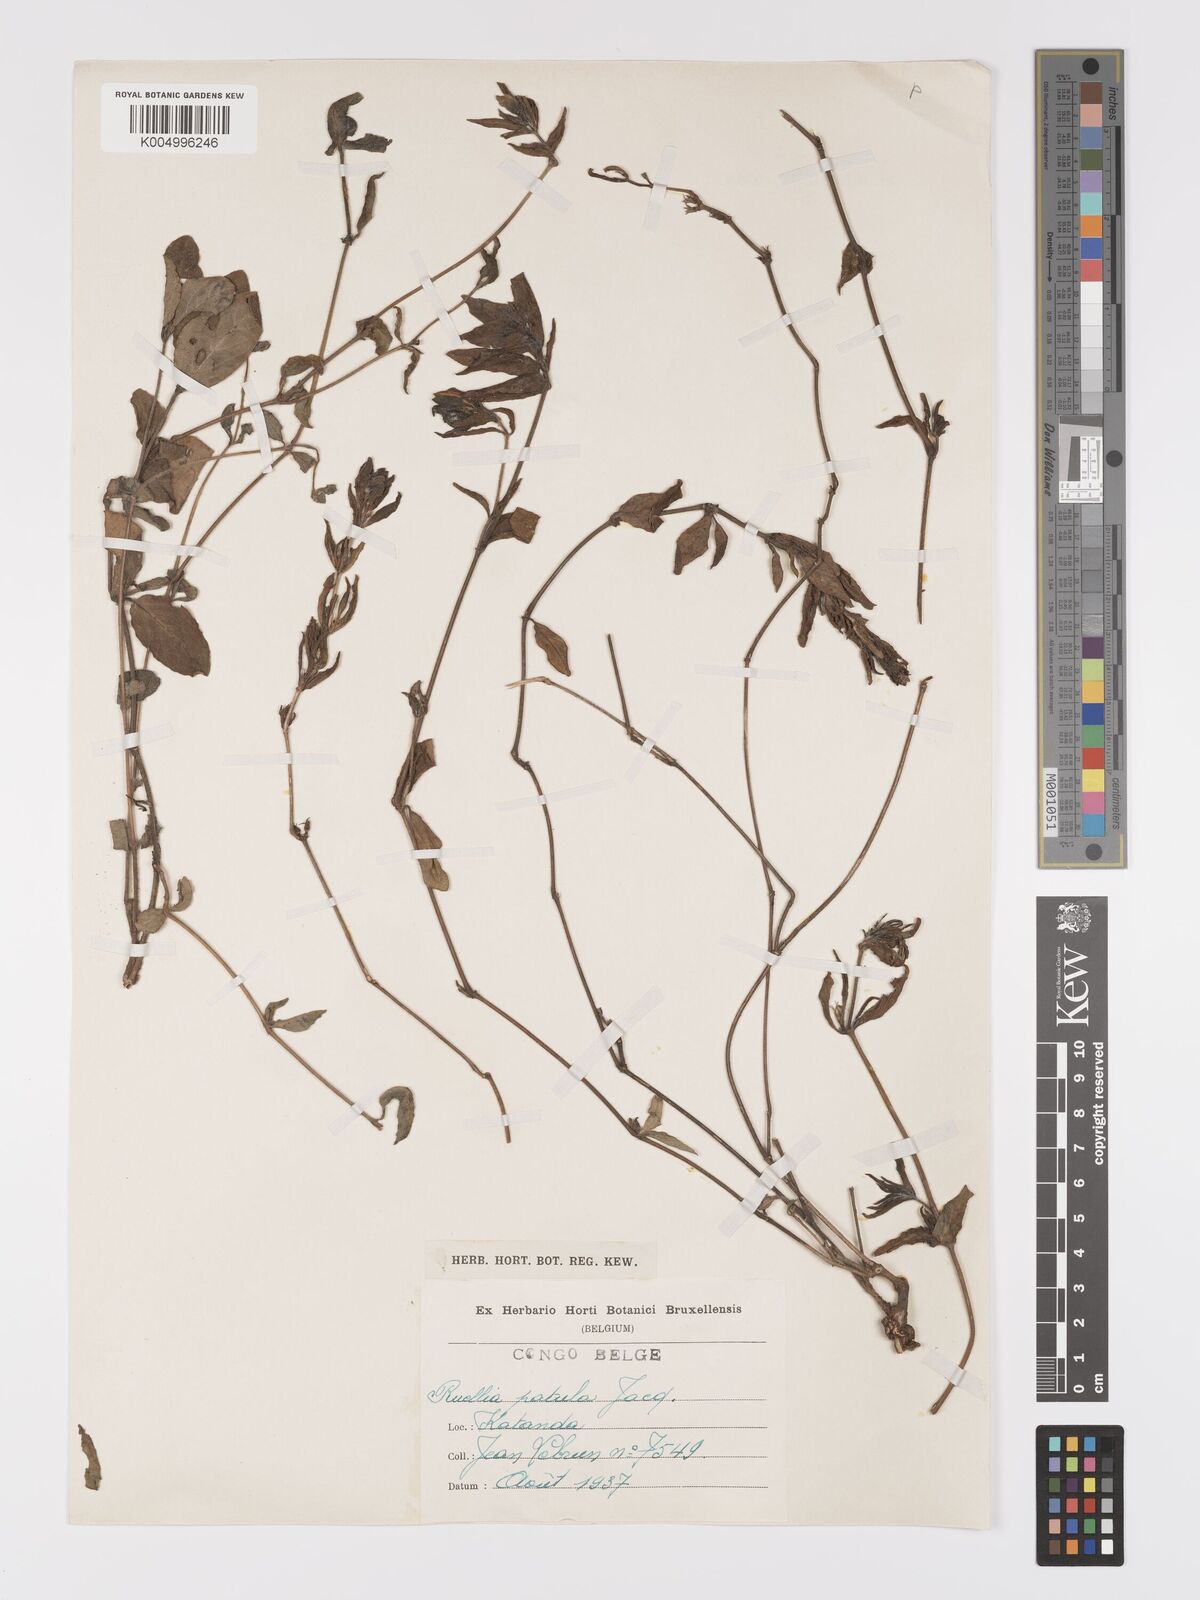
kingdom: Plantae
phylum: Tracheophyta
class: Magnoliopsida
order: Lamiales
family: Acanthaceae
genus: Ruellia
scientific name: Ruellia patula
